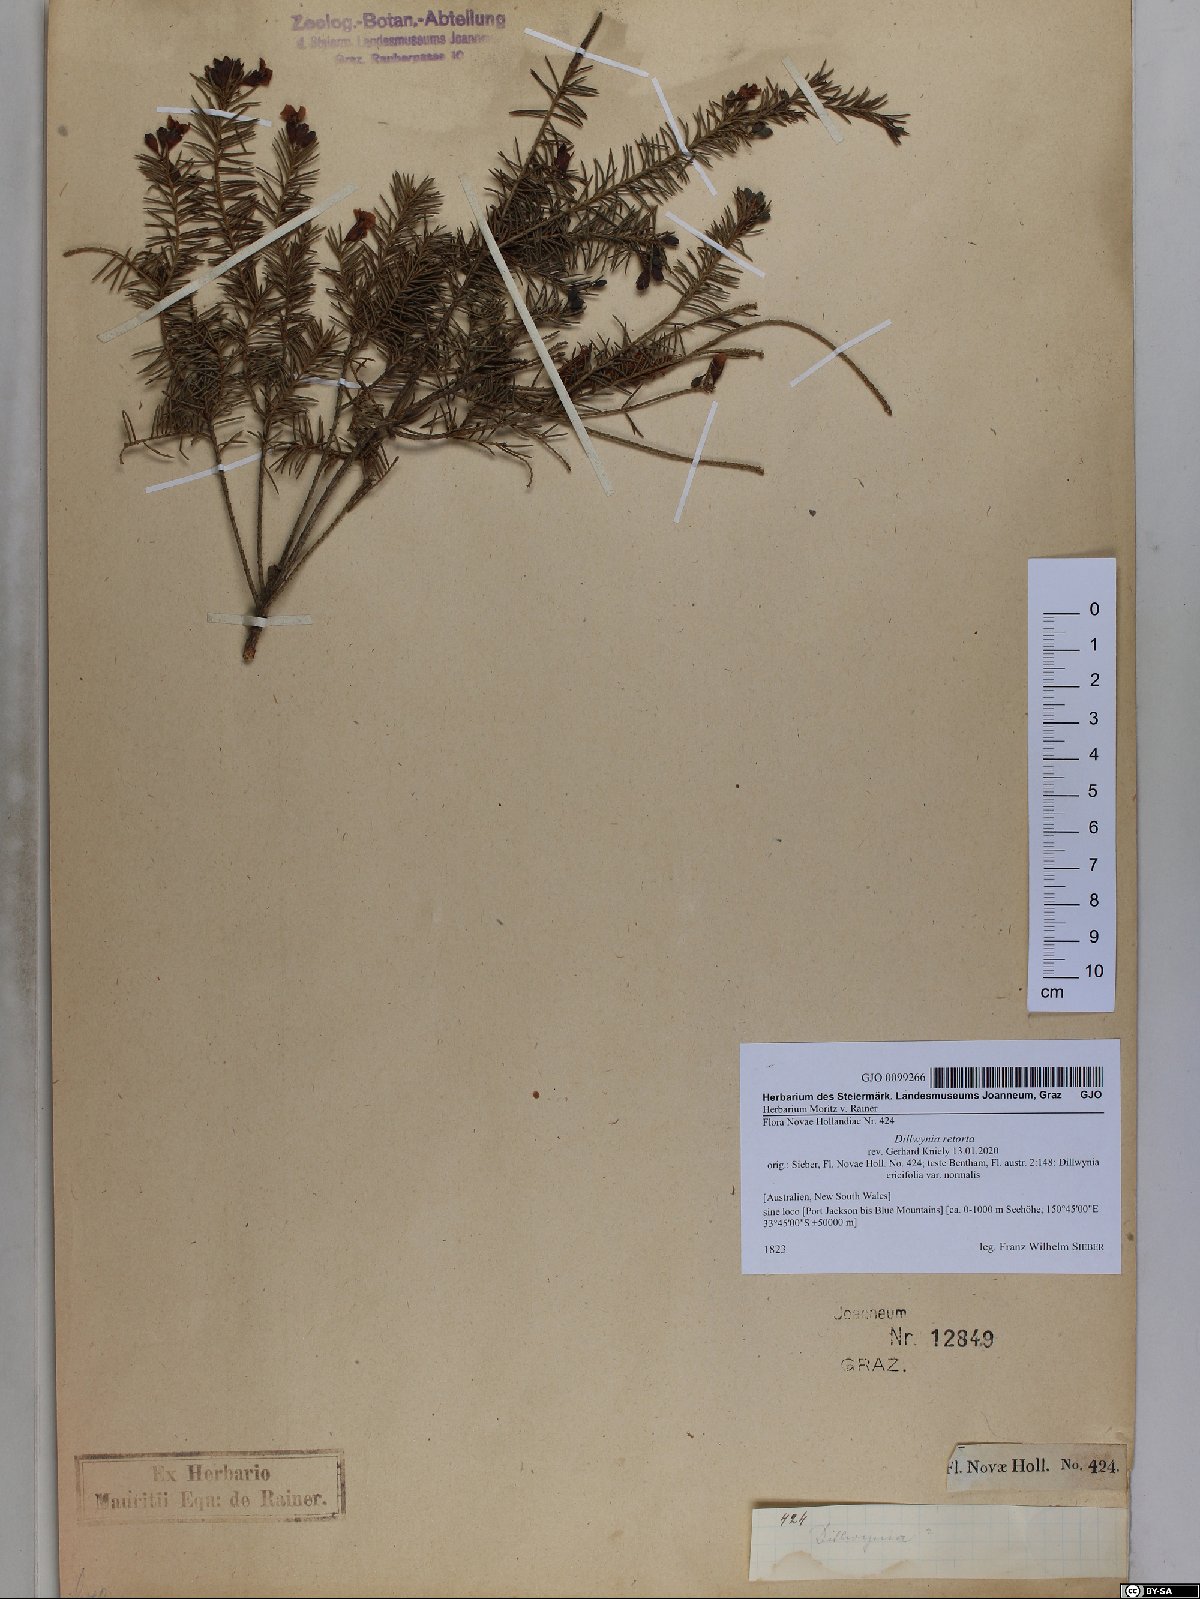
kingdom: Plantae
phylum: Tracheophyta
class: Magnoliopsida
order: Fabales
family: Fabaceae
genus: Dillwynia
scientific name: Dillwynia retorta
